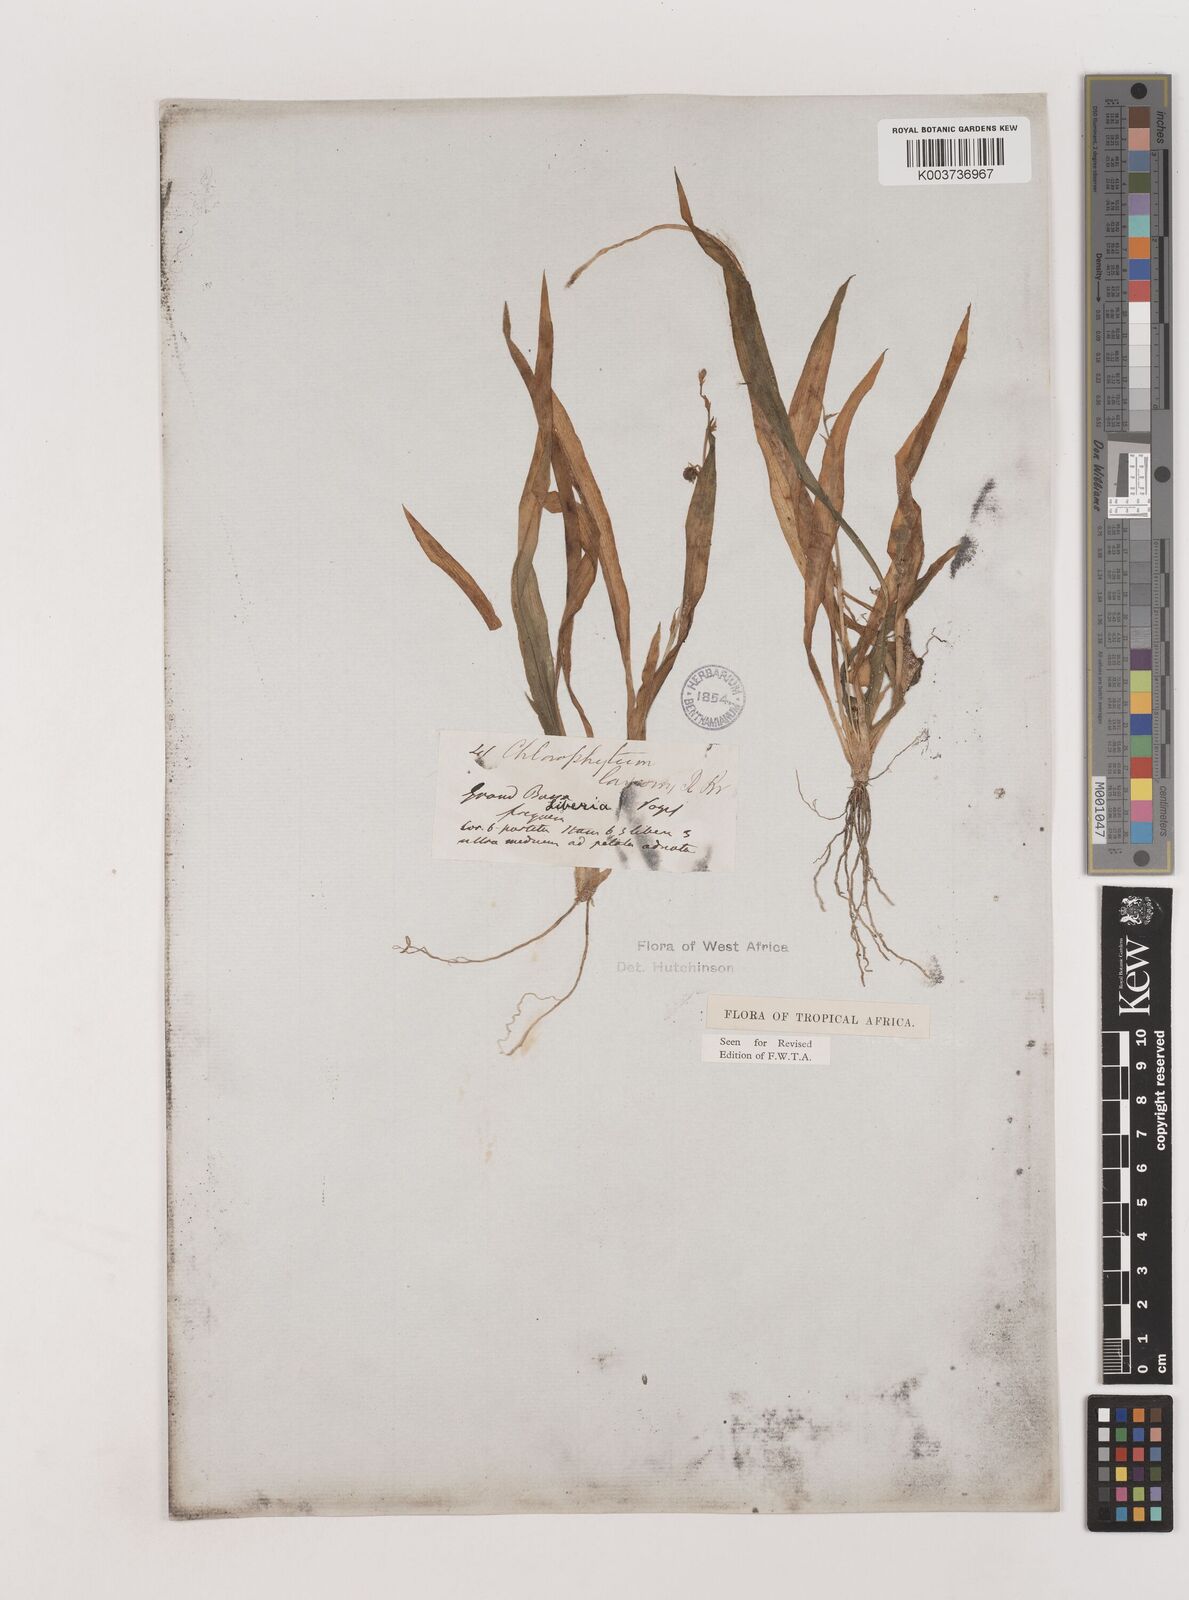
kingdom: Plantae
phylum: Tracheophyta
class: Liliopsida
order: Asparagales
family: Asparagaceae
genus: Chlorophytum
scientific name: Chlorophytum laxum
